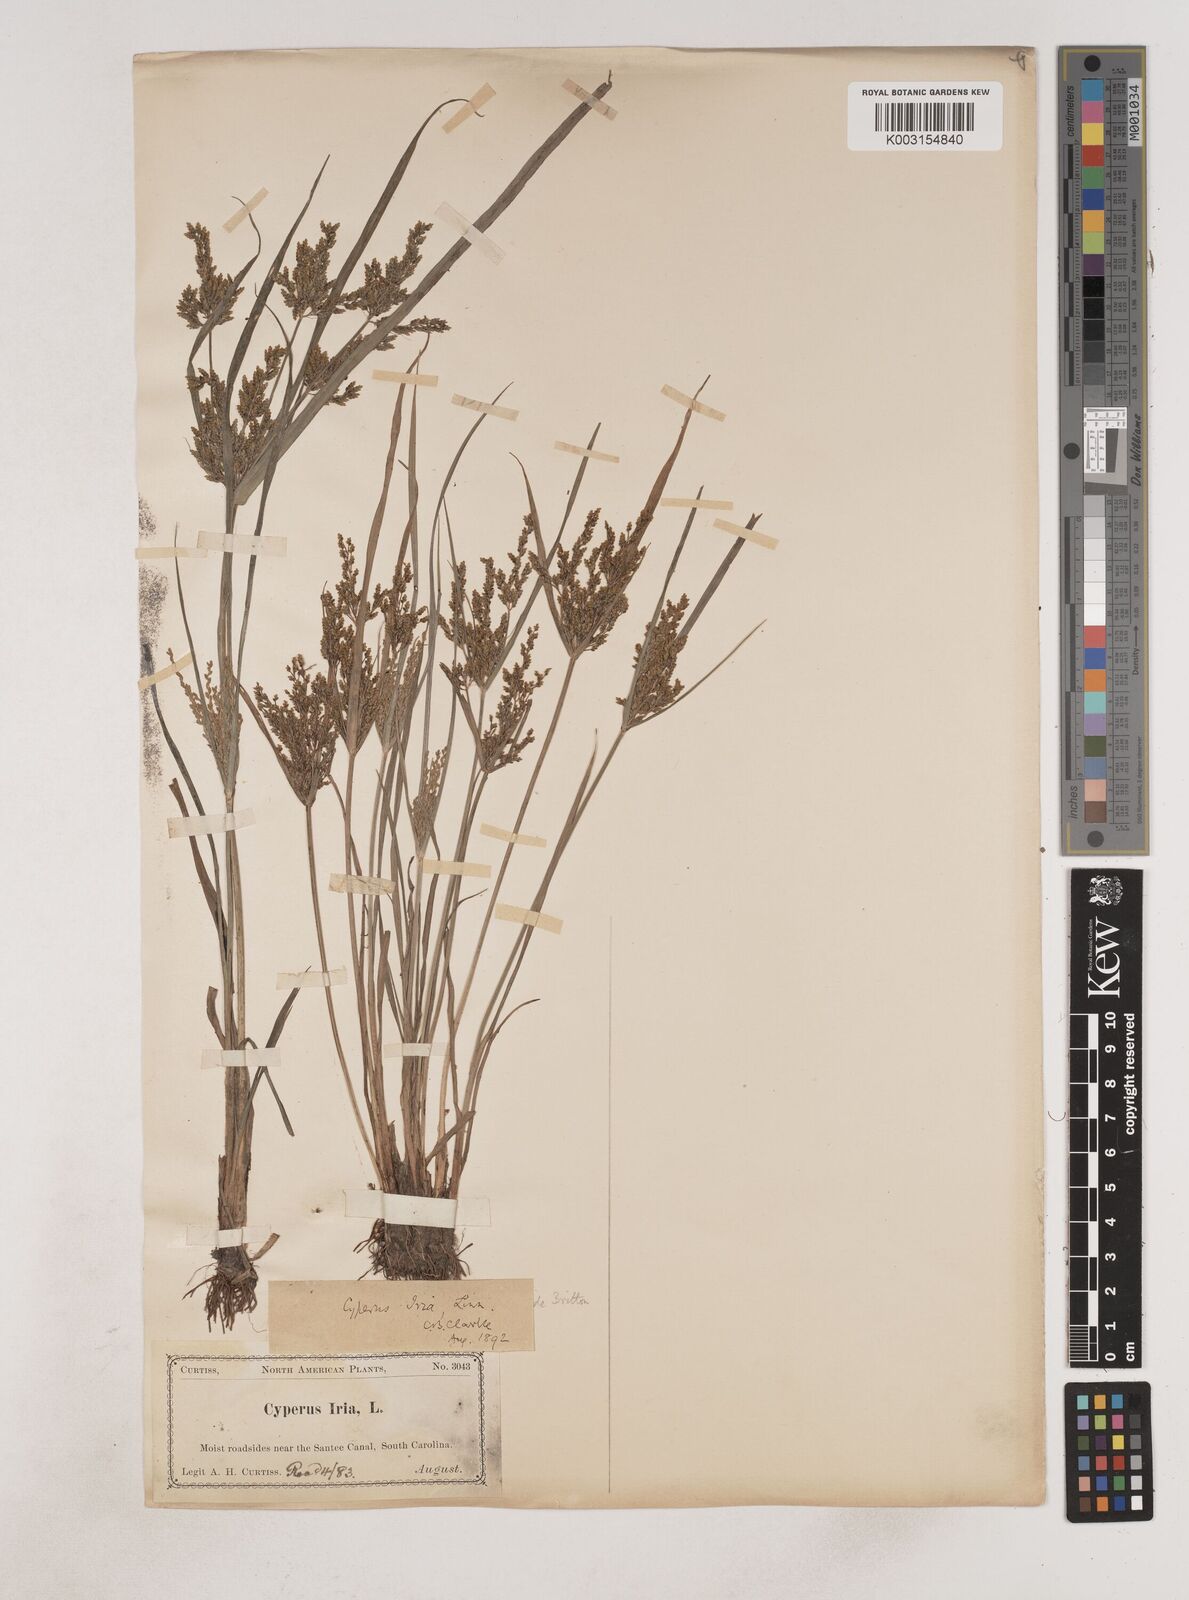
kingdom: Plantae
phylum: Tracheophyta
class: Liliopsida
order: Poales
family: Cyperaceae
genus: Cyperus
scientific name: Cyperus iria
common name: Ricefield flatsedge
